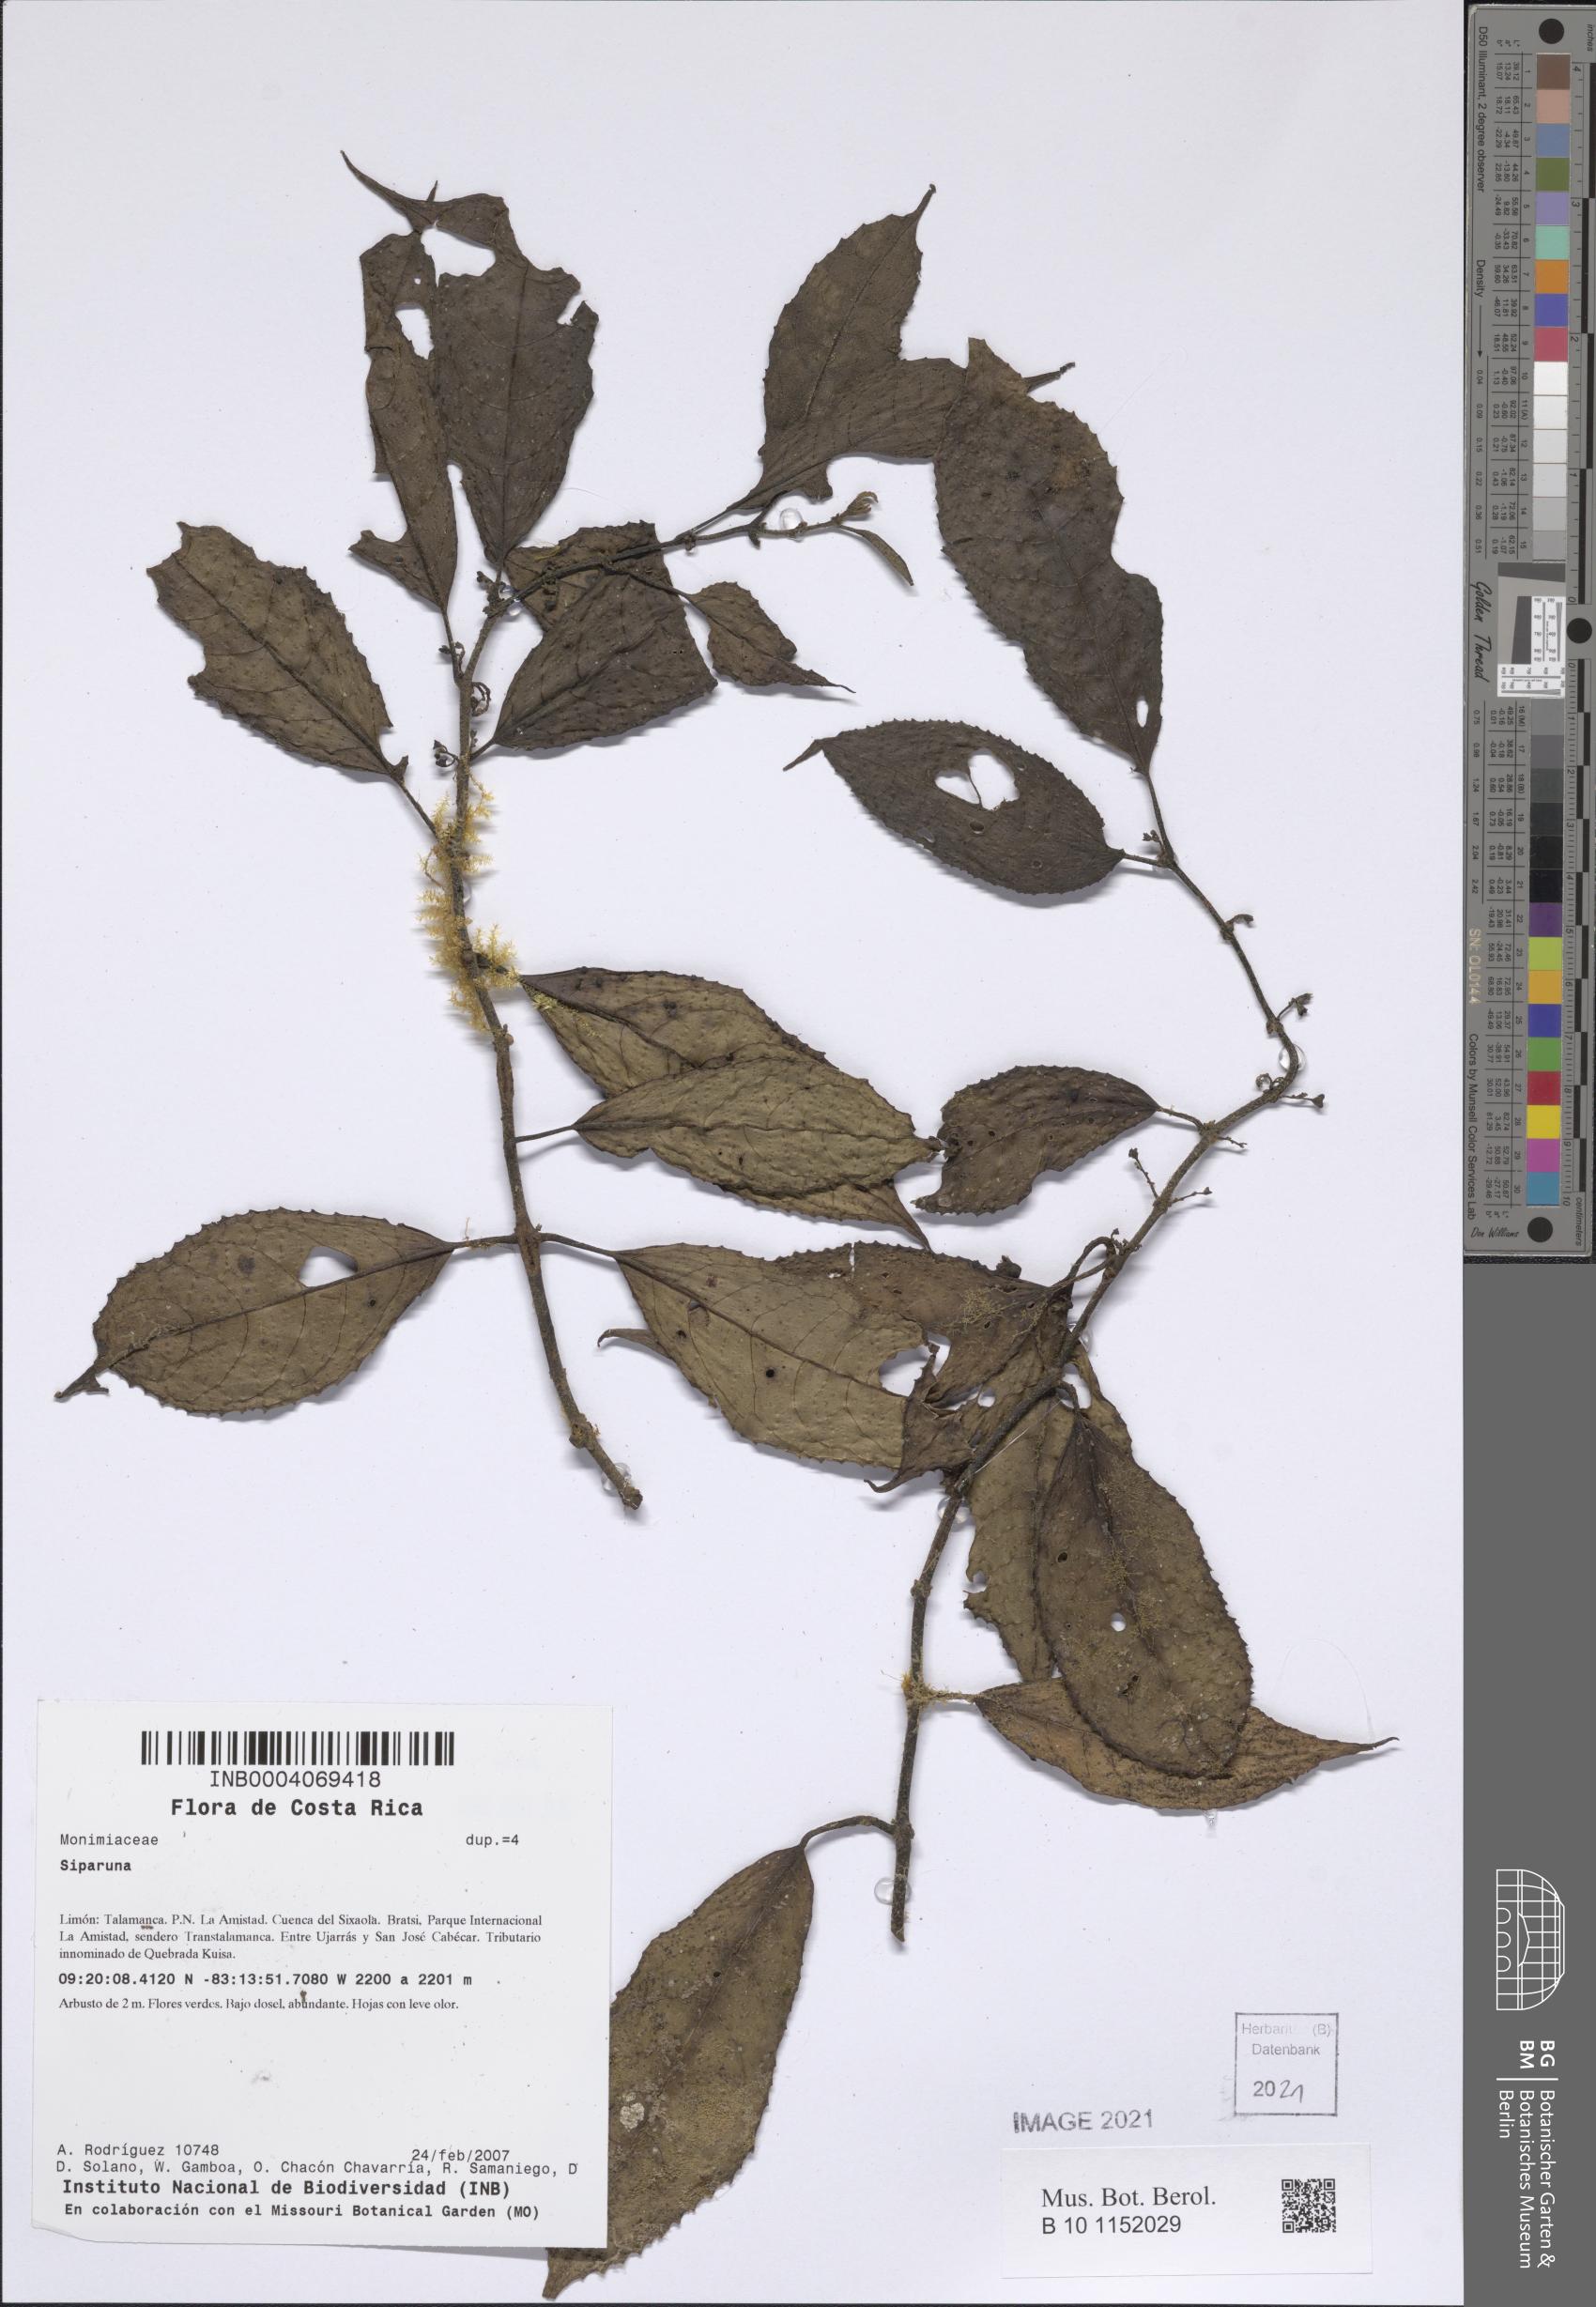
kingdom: Plantae
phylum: Tracheophyta
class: Magnoliopsida
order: Laurales
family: Siparunaceae
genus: Siparuna
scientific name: Siparuna
